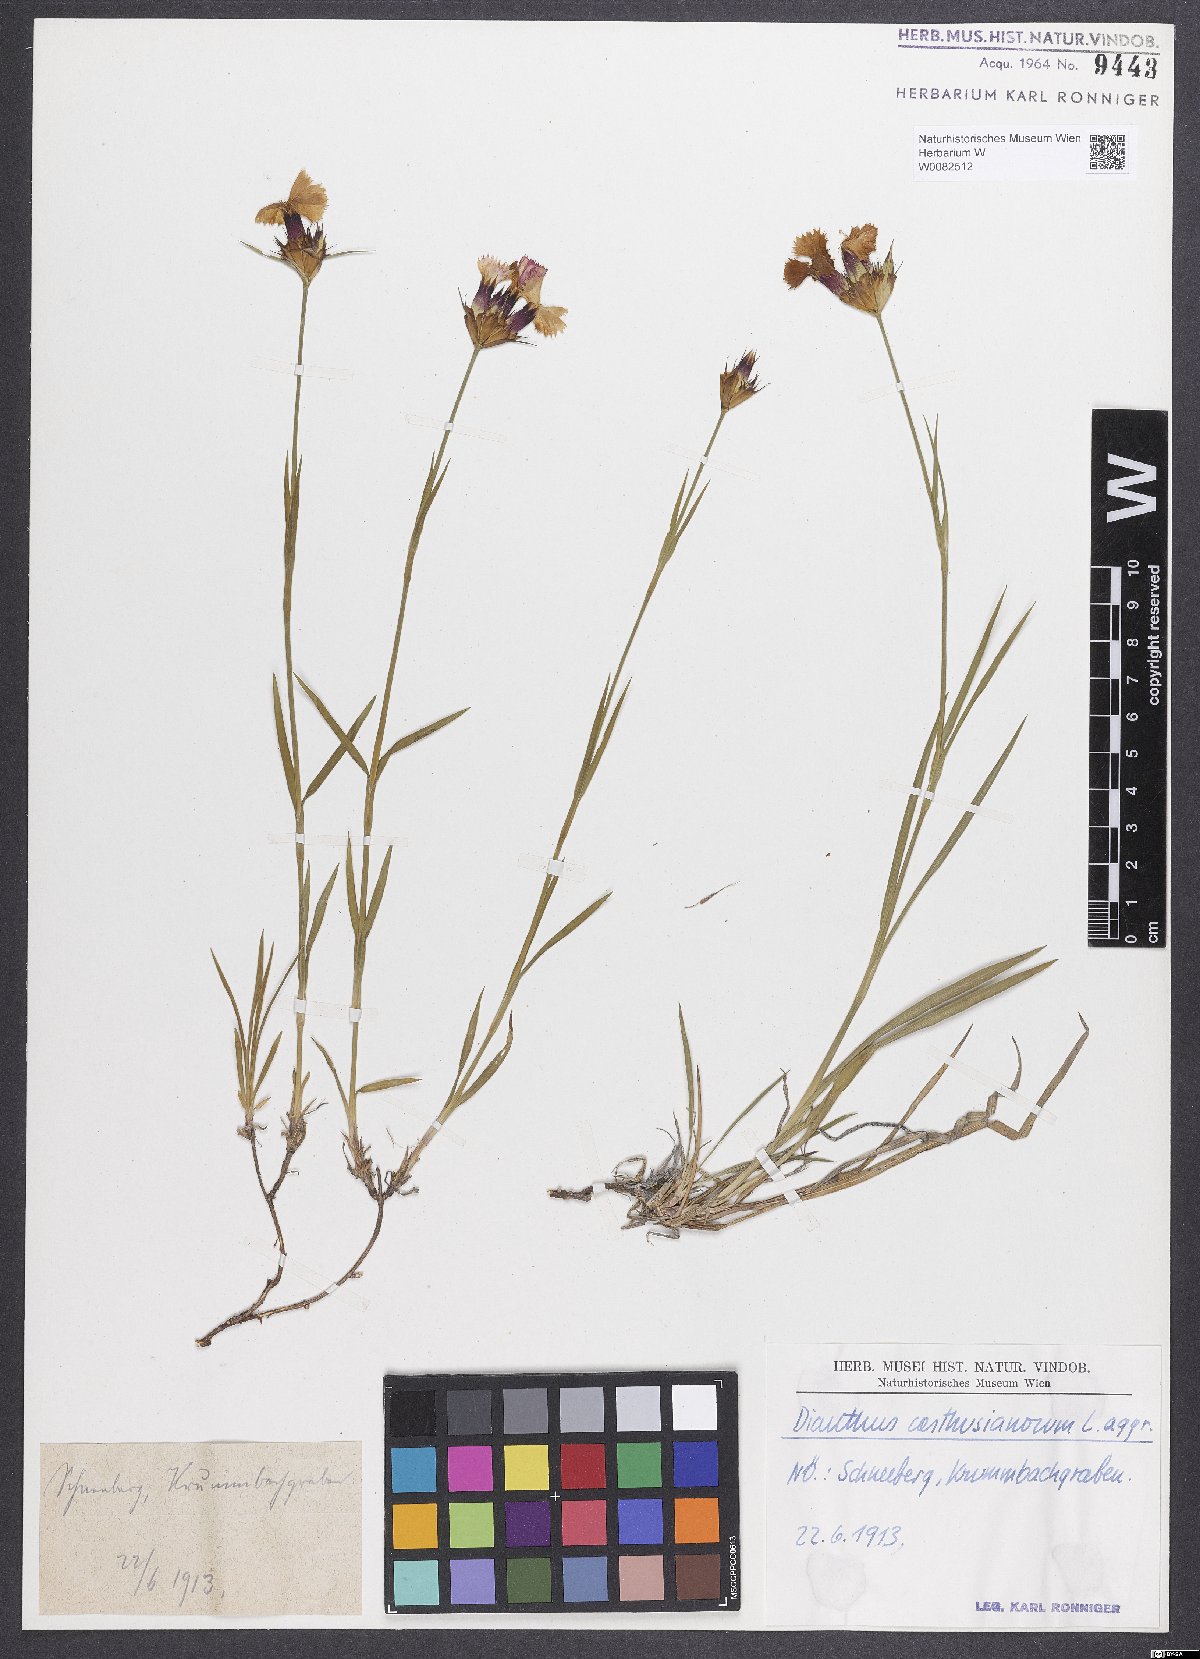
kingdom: Plantae
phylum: Tracheophyta
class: Magnoliopsida
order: Caryophyllales
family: Caryophyllaceae
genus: Dianthus
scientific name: Dianthus carthusianorum
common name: Carthusian pink
